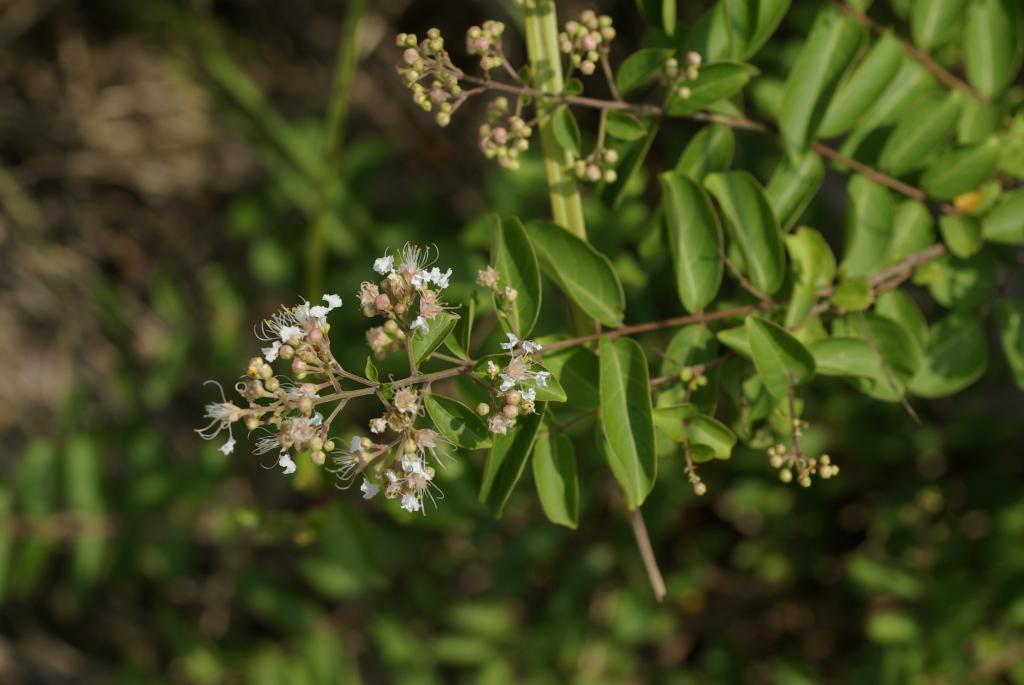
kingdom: Plantae
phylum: Tracheophyta
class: Magnoliopsida
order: Myrtales
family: Lythraceae
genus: Lagerstroemia
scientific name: Lagerstroemia subcostata
